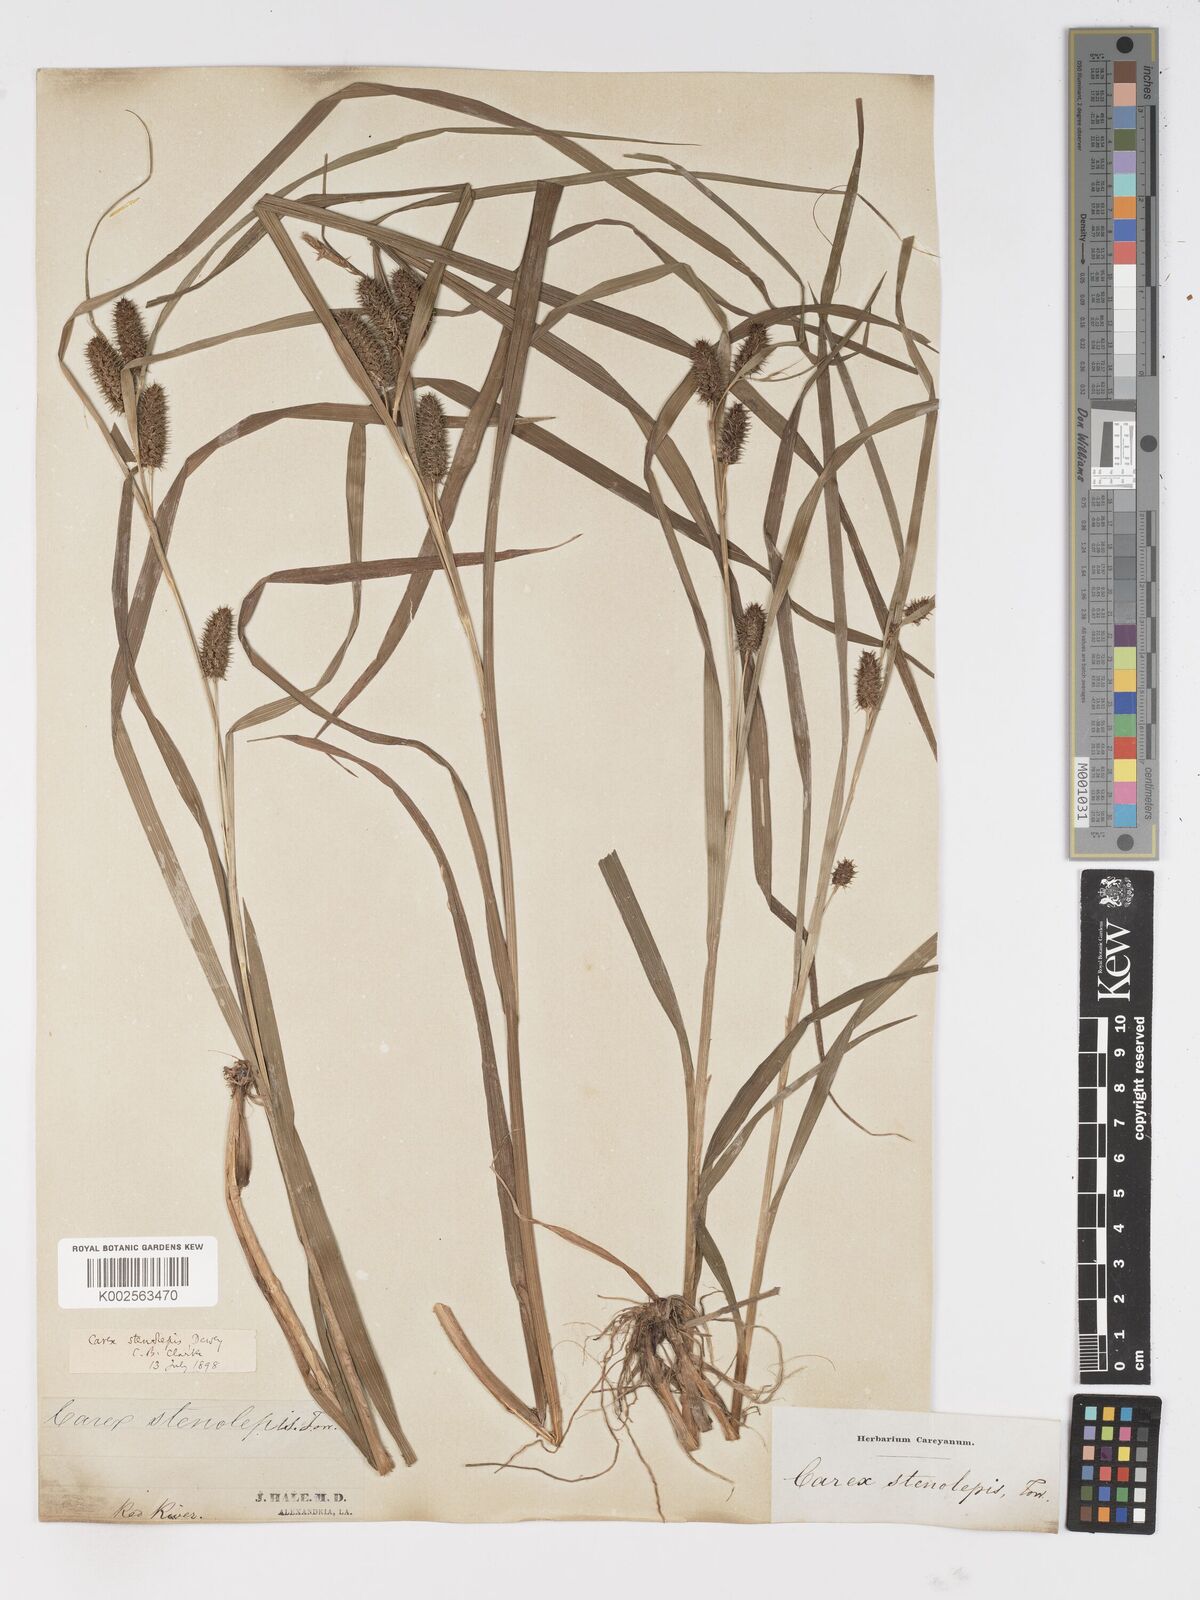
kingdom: Plantae
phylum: Tracheophyta
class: Liliopsida
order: Poales
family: Cyperaceae
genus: Carex
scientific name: Carex frankii
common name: Frank's sedge
